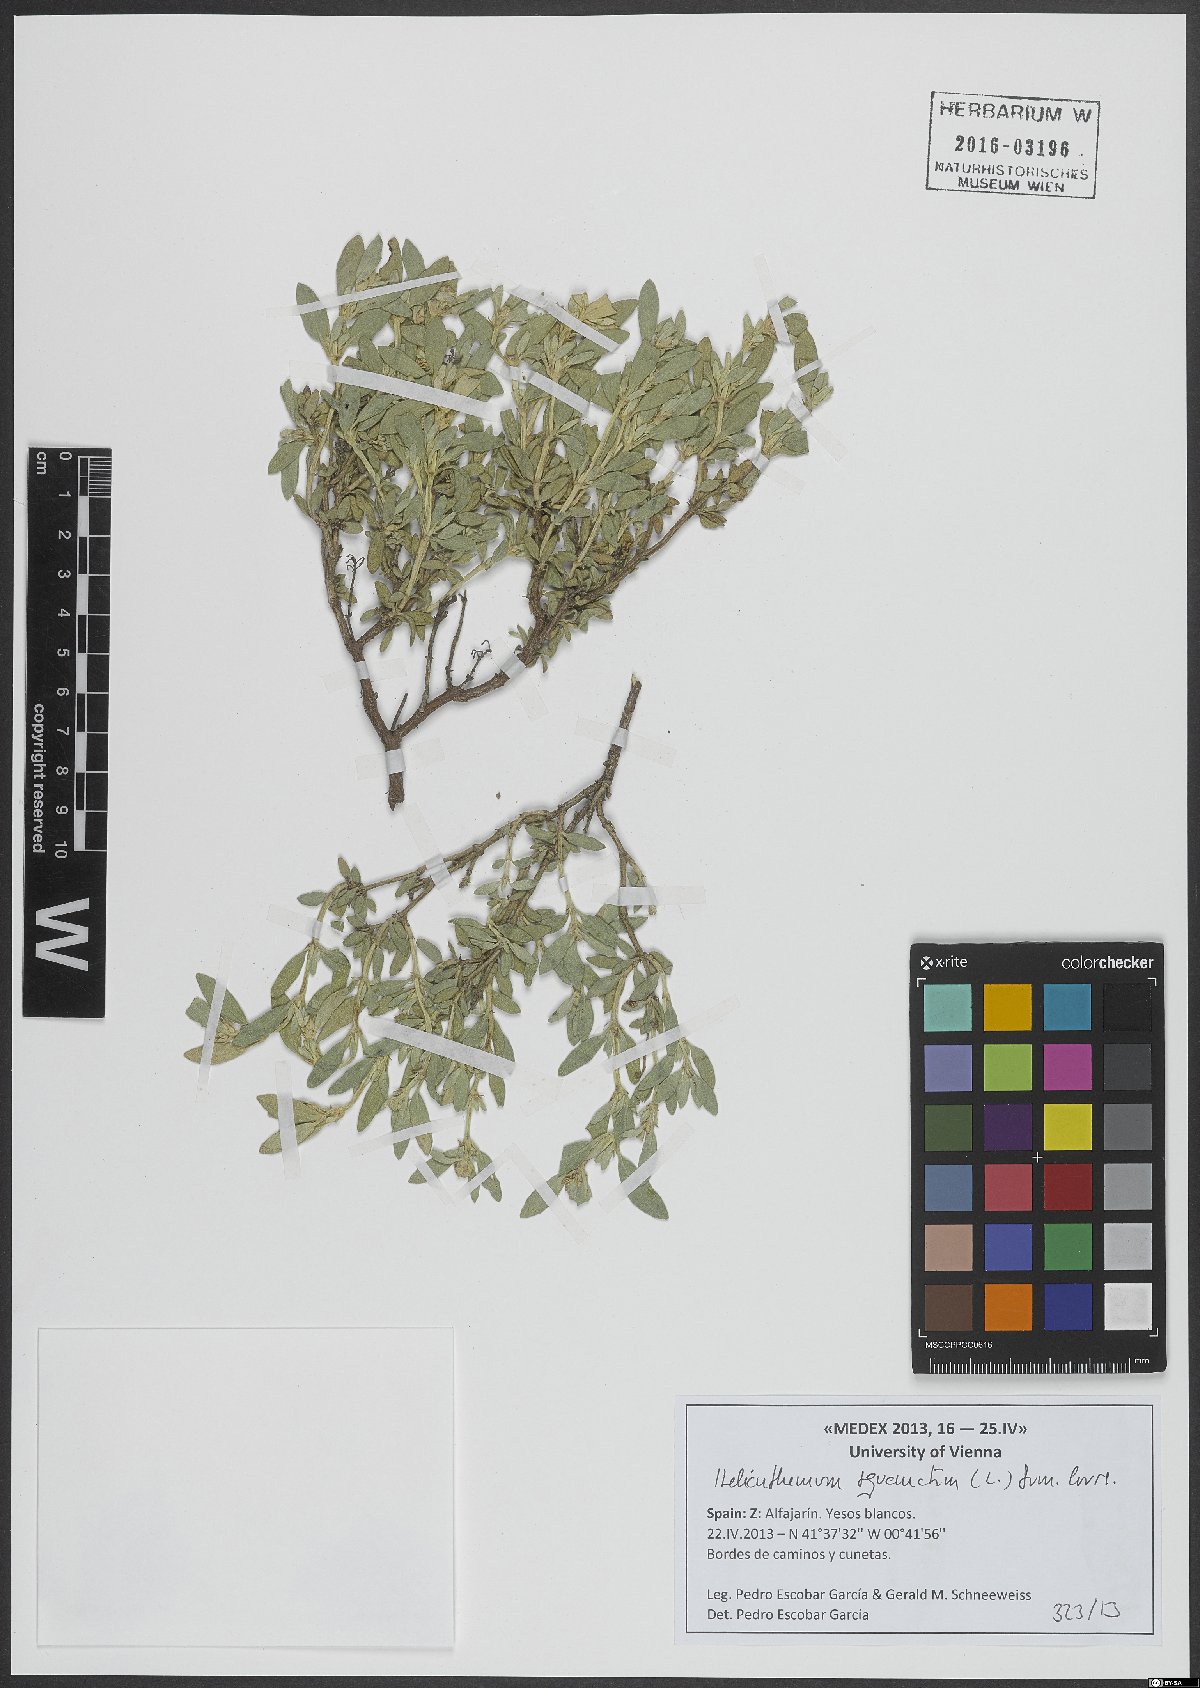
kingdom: Plantae
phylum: Tracheophyta
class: Magnoliopsida
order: Malvales
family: Cistaceae
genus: Helianthemum
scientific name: Helianthemum squamatum
